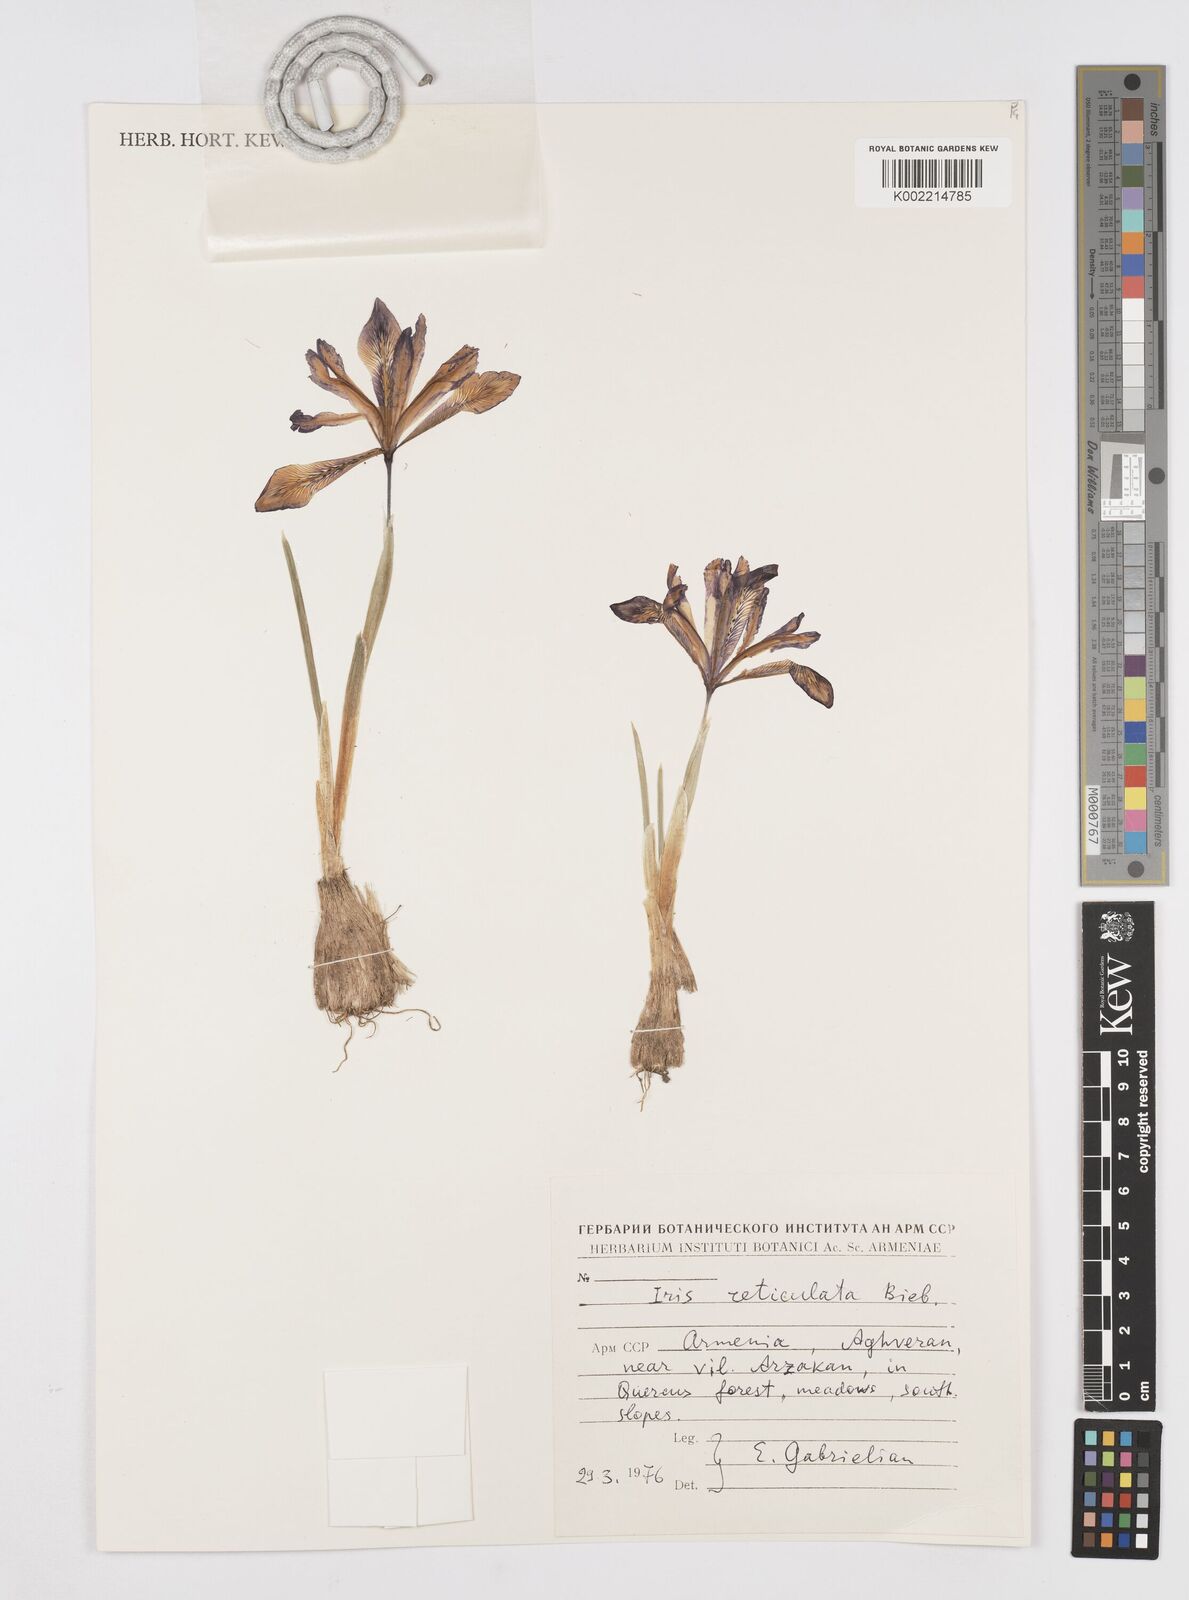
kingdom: Plantae
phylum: Tracheophyta
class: Liliopsida
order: Asparagales
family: Iridaceae
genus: Iris
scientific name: Iris reticulata
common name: Netted iris
